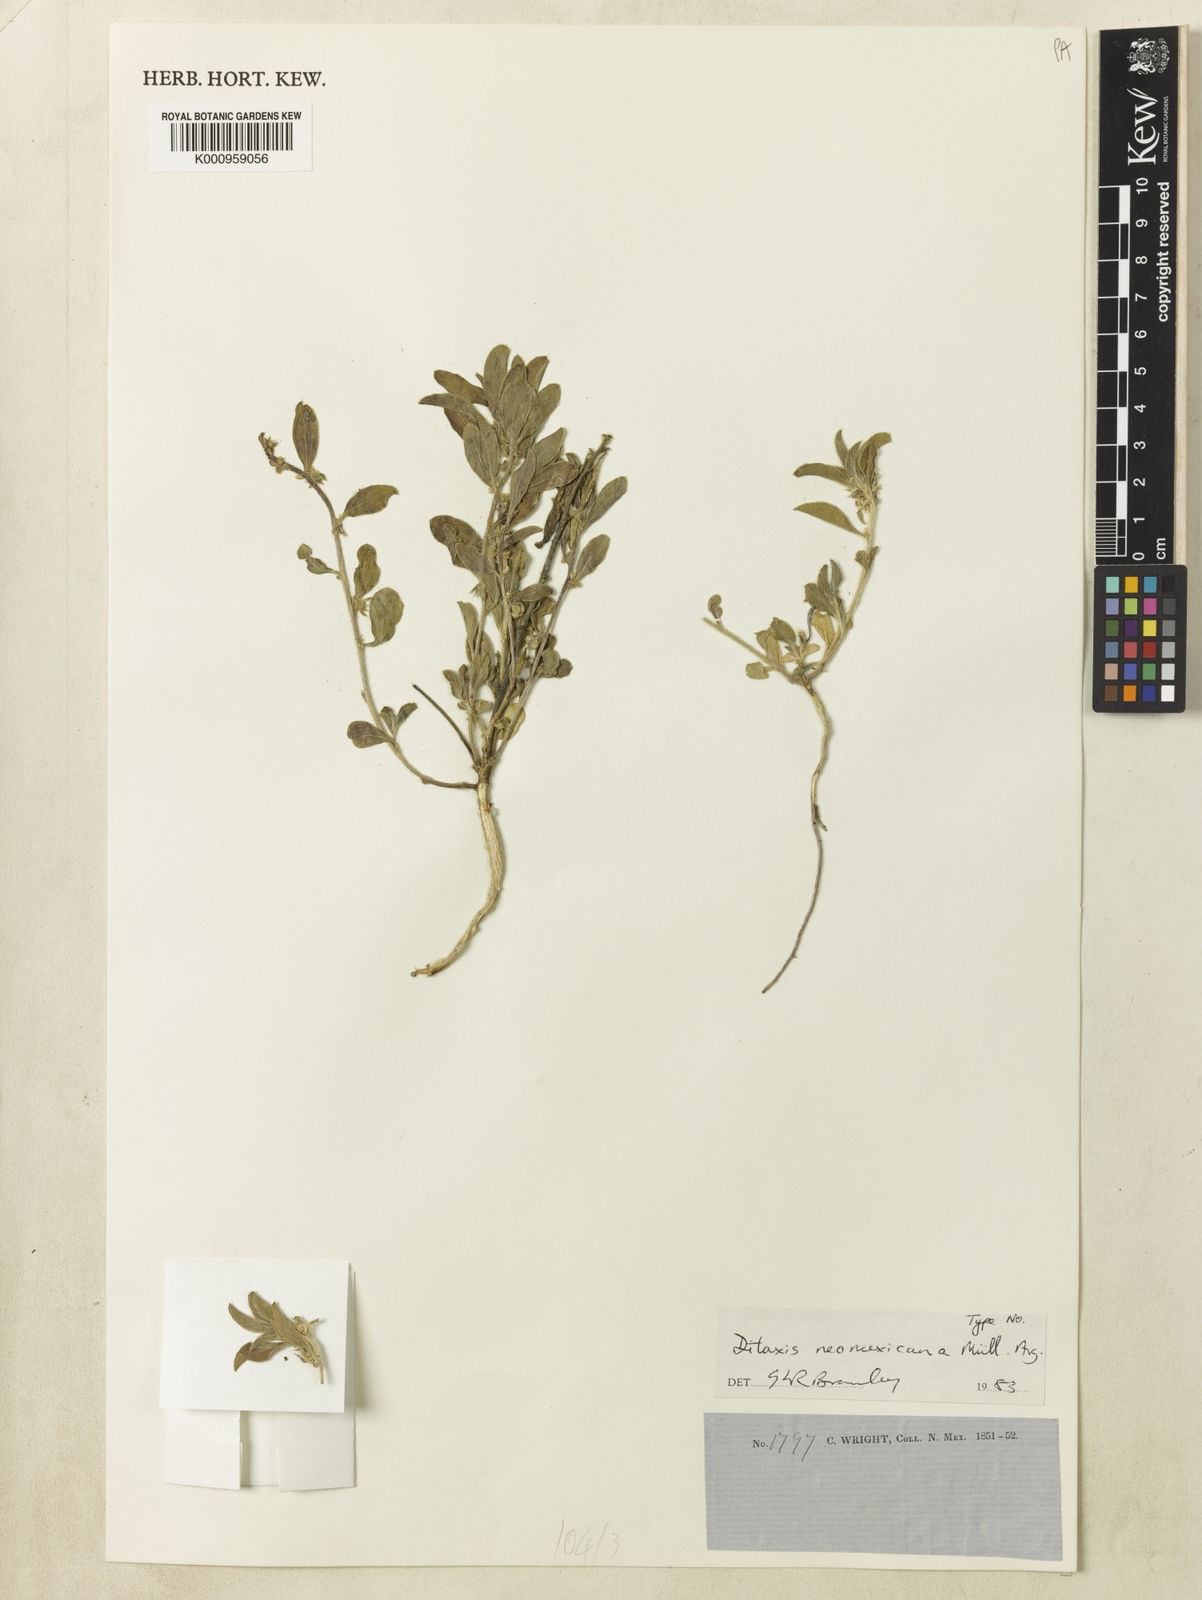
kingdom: Plantae
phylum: Tracheophyta
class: Magnoliopsida
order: Malpighiales
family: Euphorbiaceae
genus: Ditaxis
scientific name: Ditaxis
